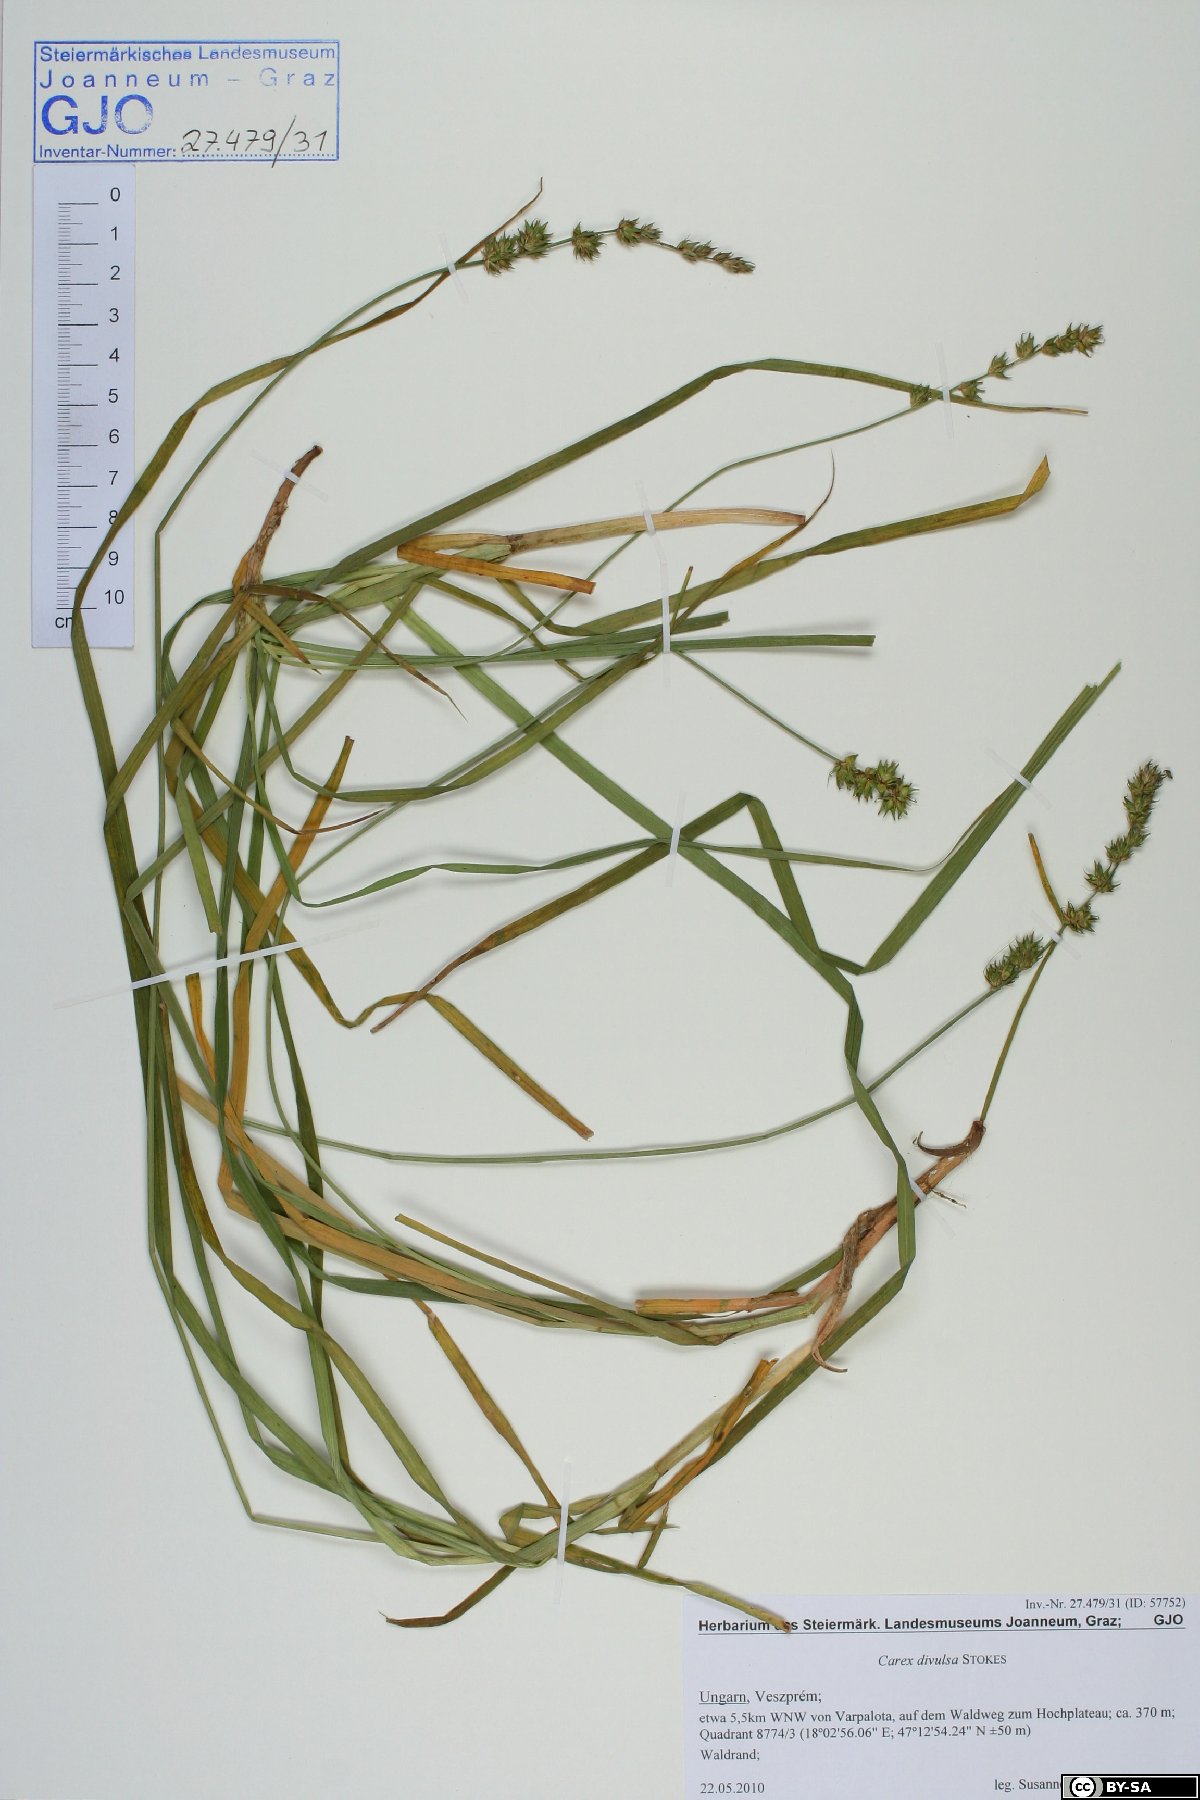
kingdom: Plantae
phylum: Tracheophyta
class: Liliopsida
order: Poales
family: Cyperaceae
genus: Carex
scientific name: Carex divulsa
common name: Grassland sedge
